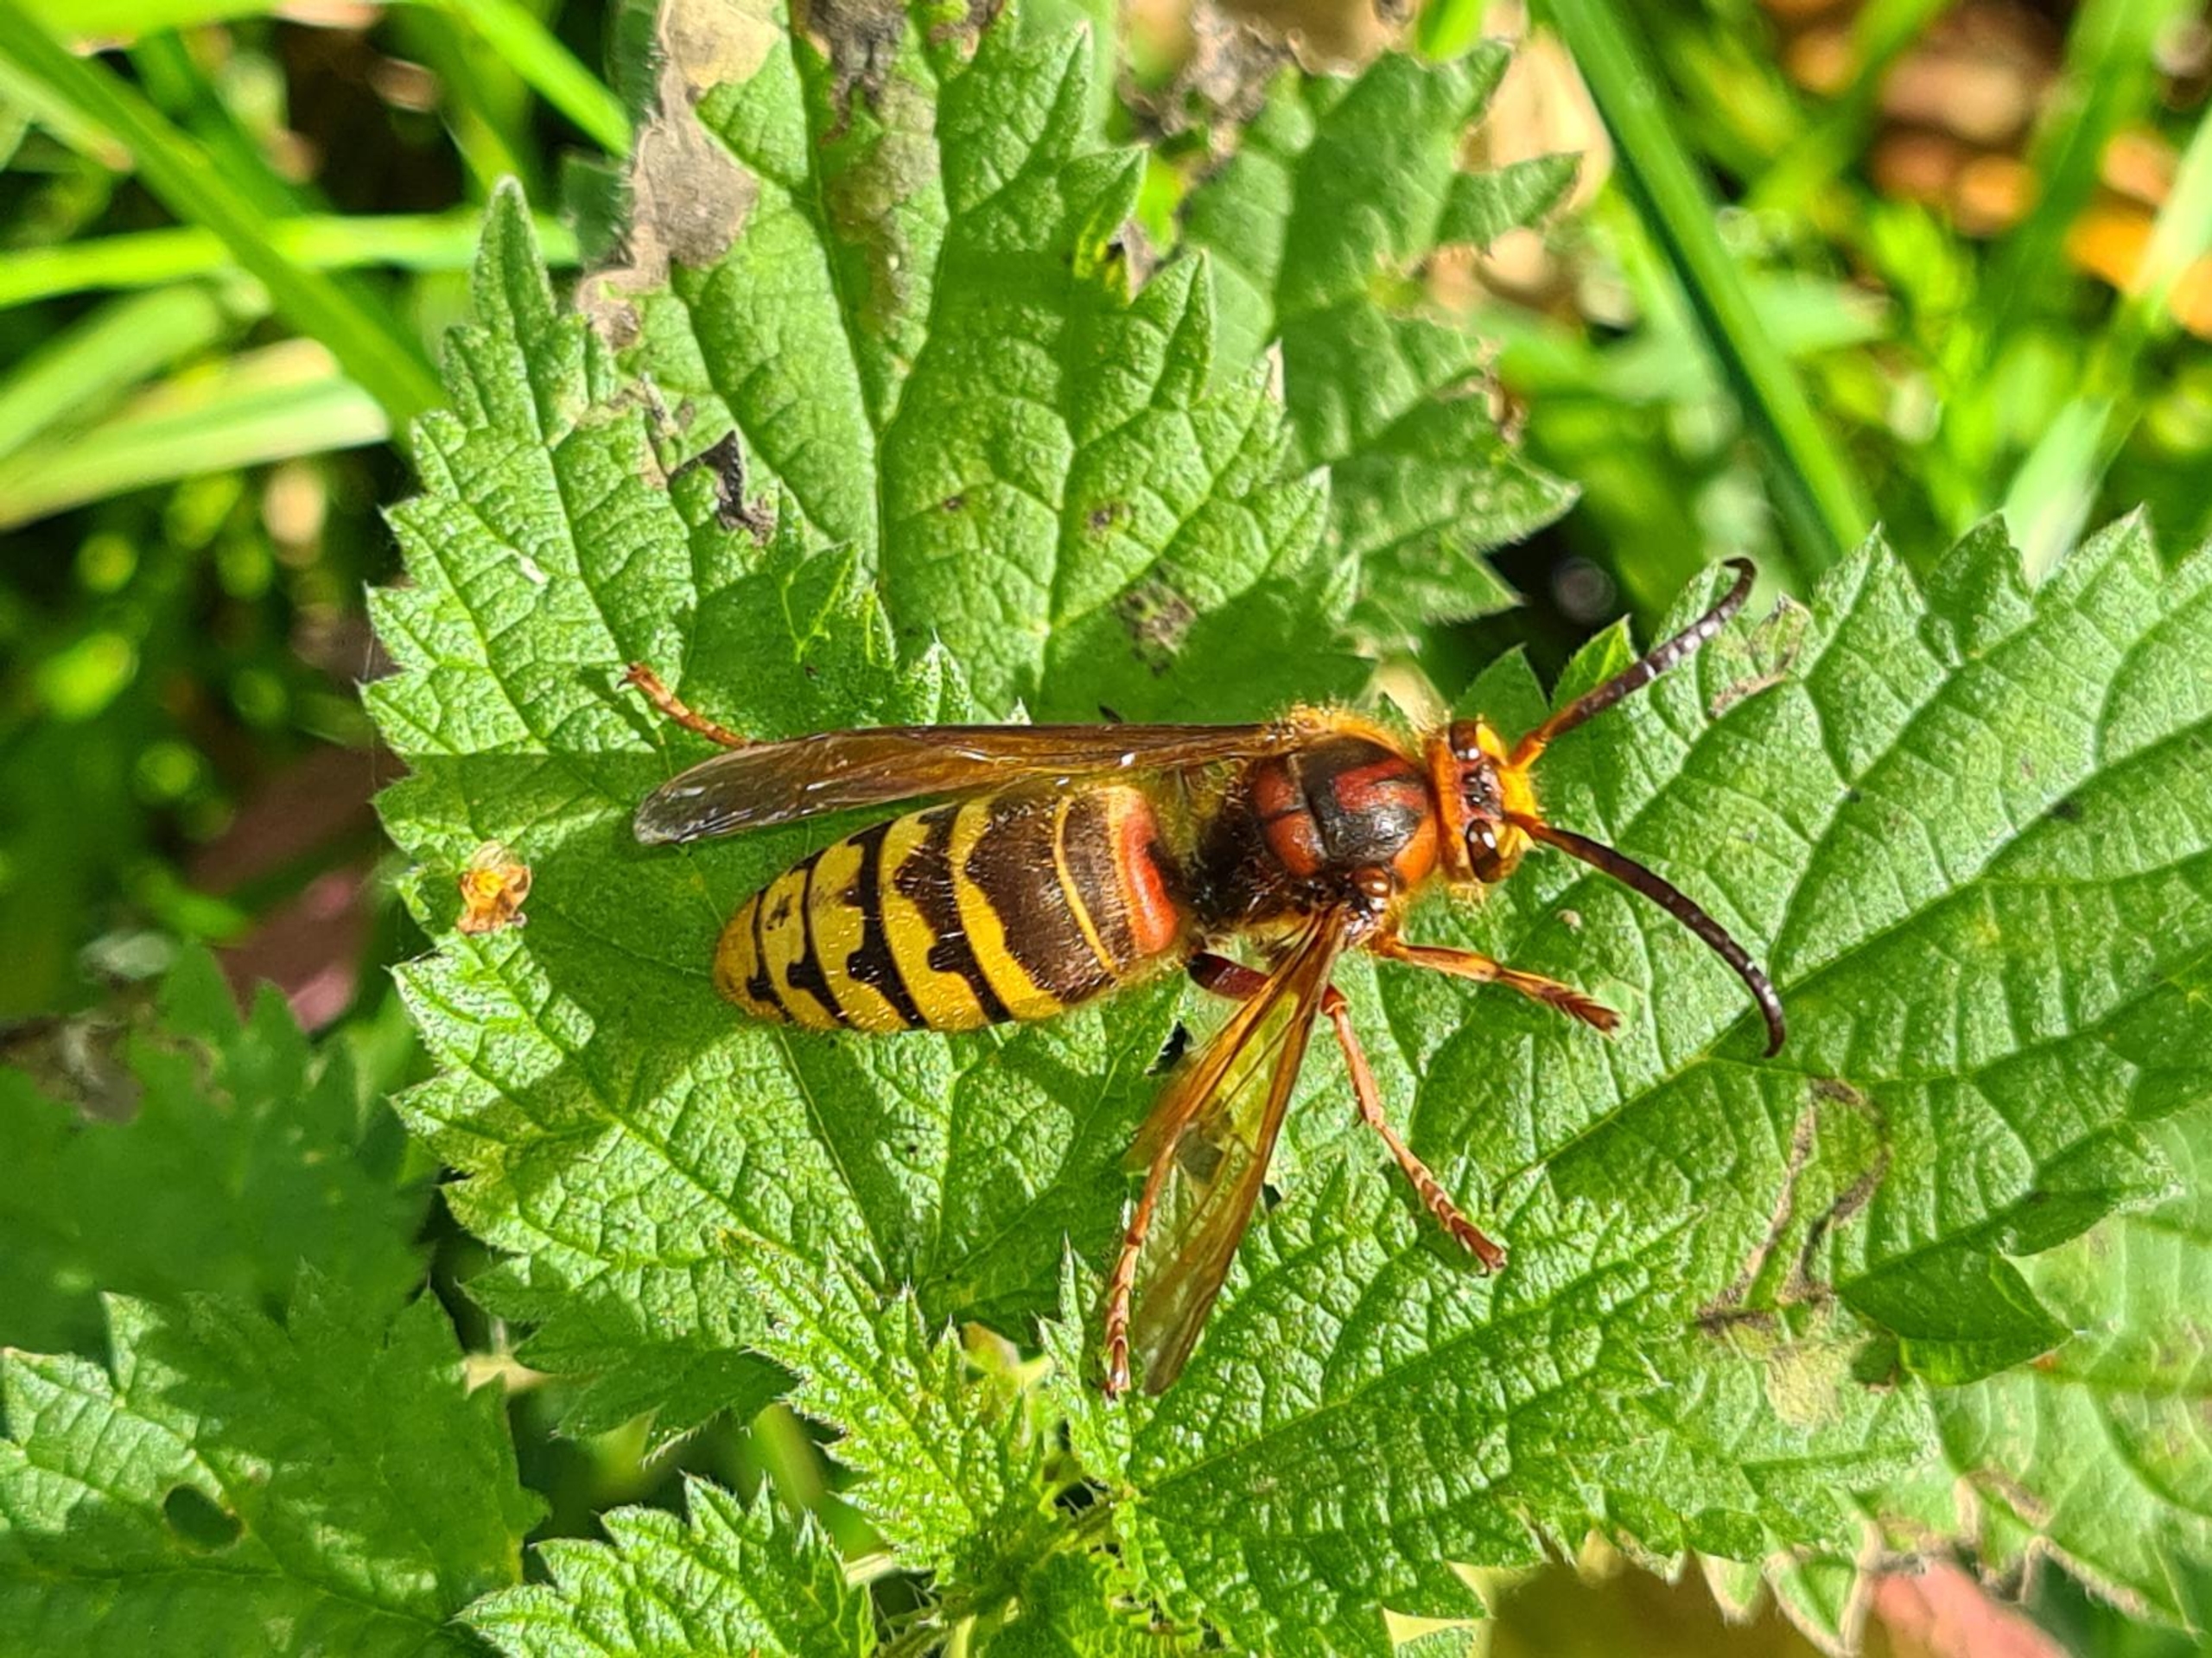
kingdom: Animalia
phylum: Arthropoda
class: Insecta
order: Hymenoptera
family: Vespidae
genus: Vespa
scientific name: Vespa crabro
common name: Stor gedehams
